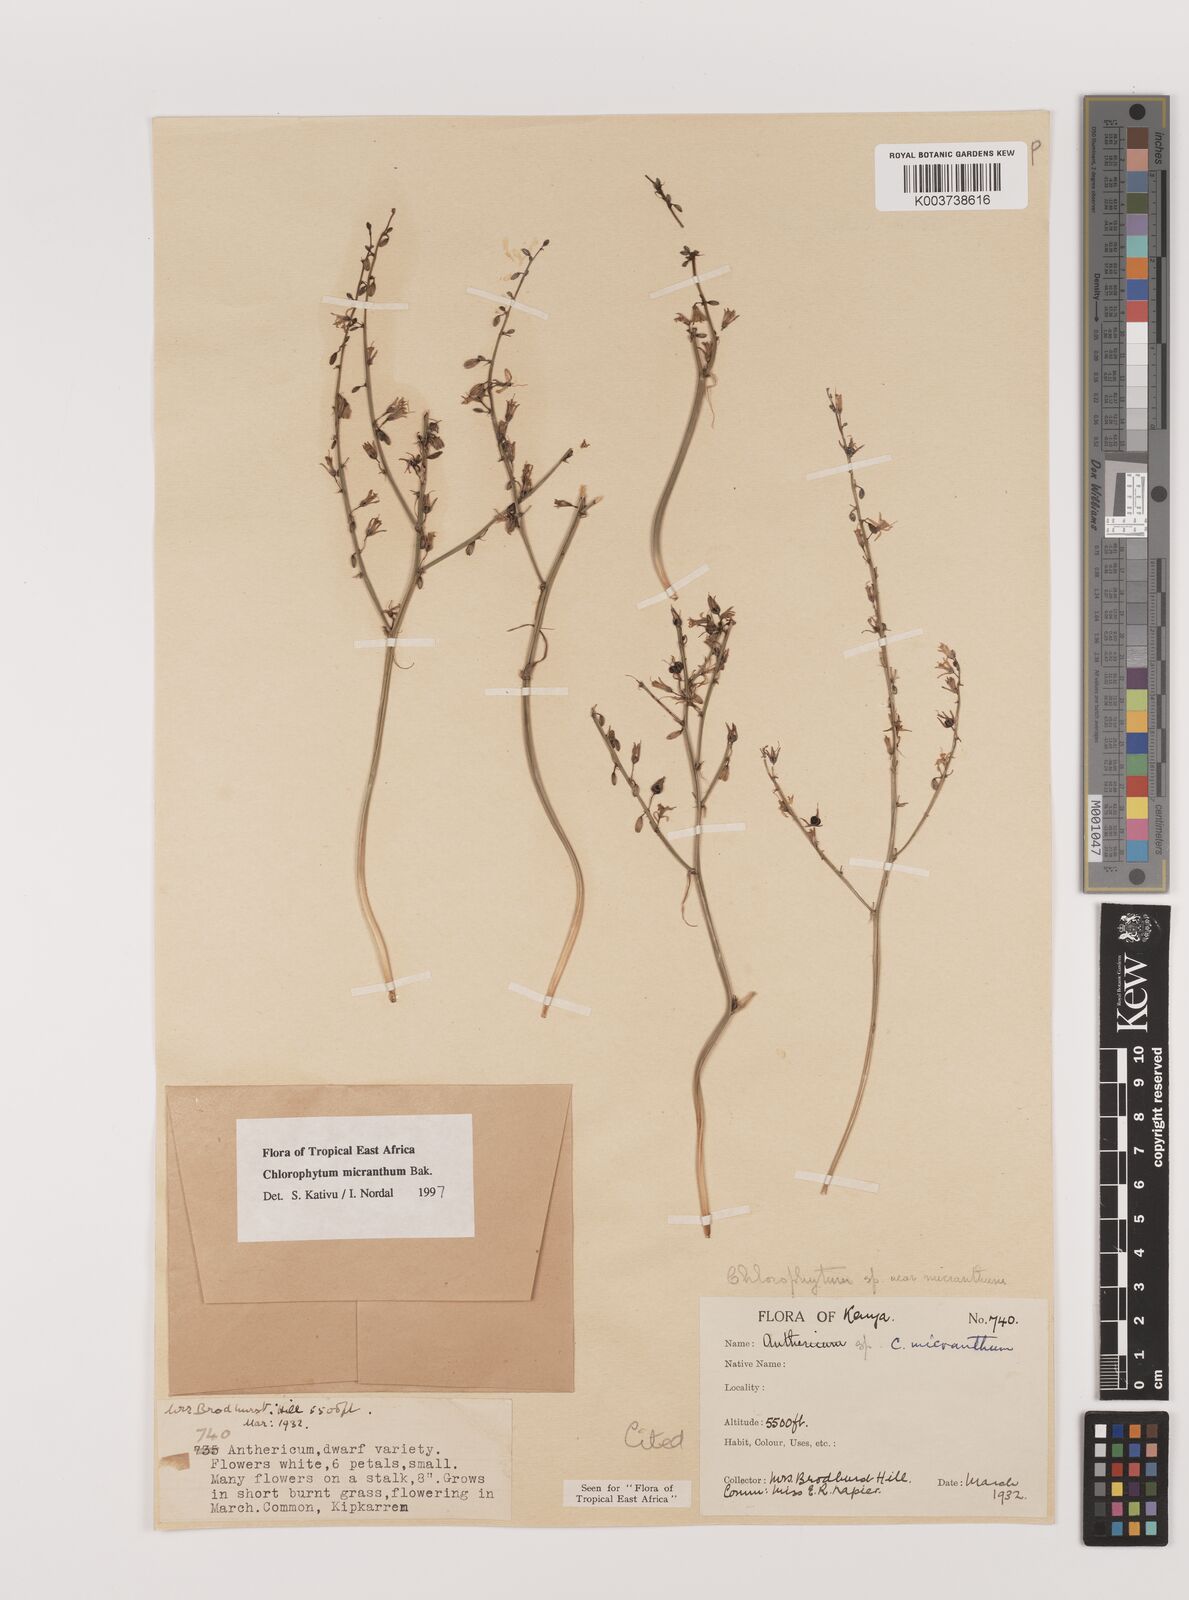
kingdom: Plantae
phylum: Tracheophyta
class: Liliopsida
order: Asparagales
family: Asparagaceae
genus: Chlorophytum
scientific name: Chlorophytum gallabatense
